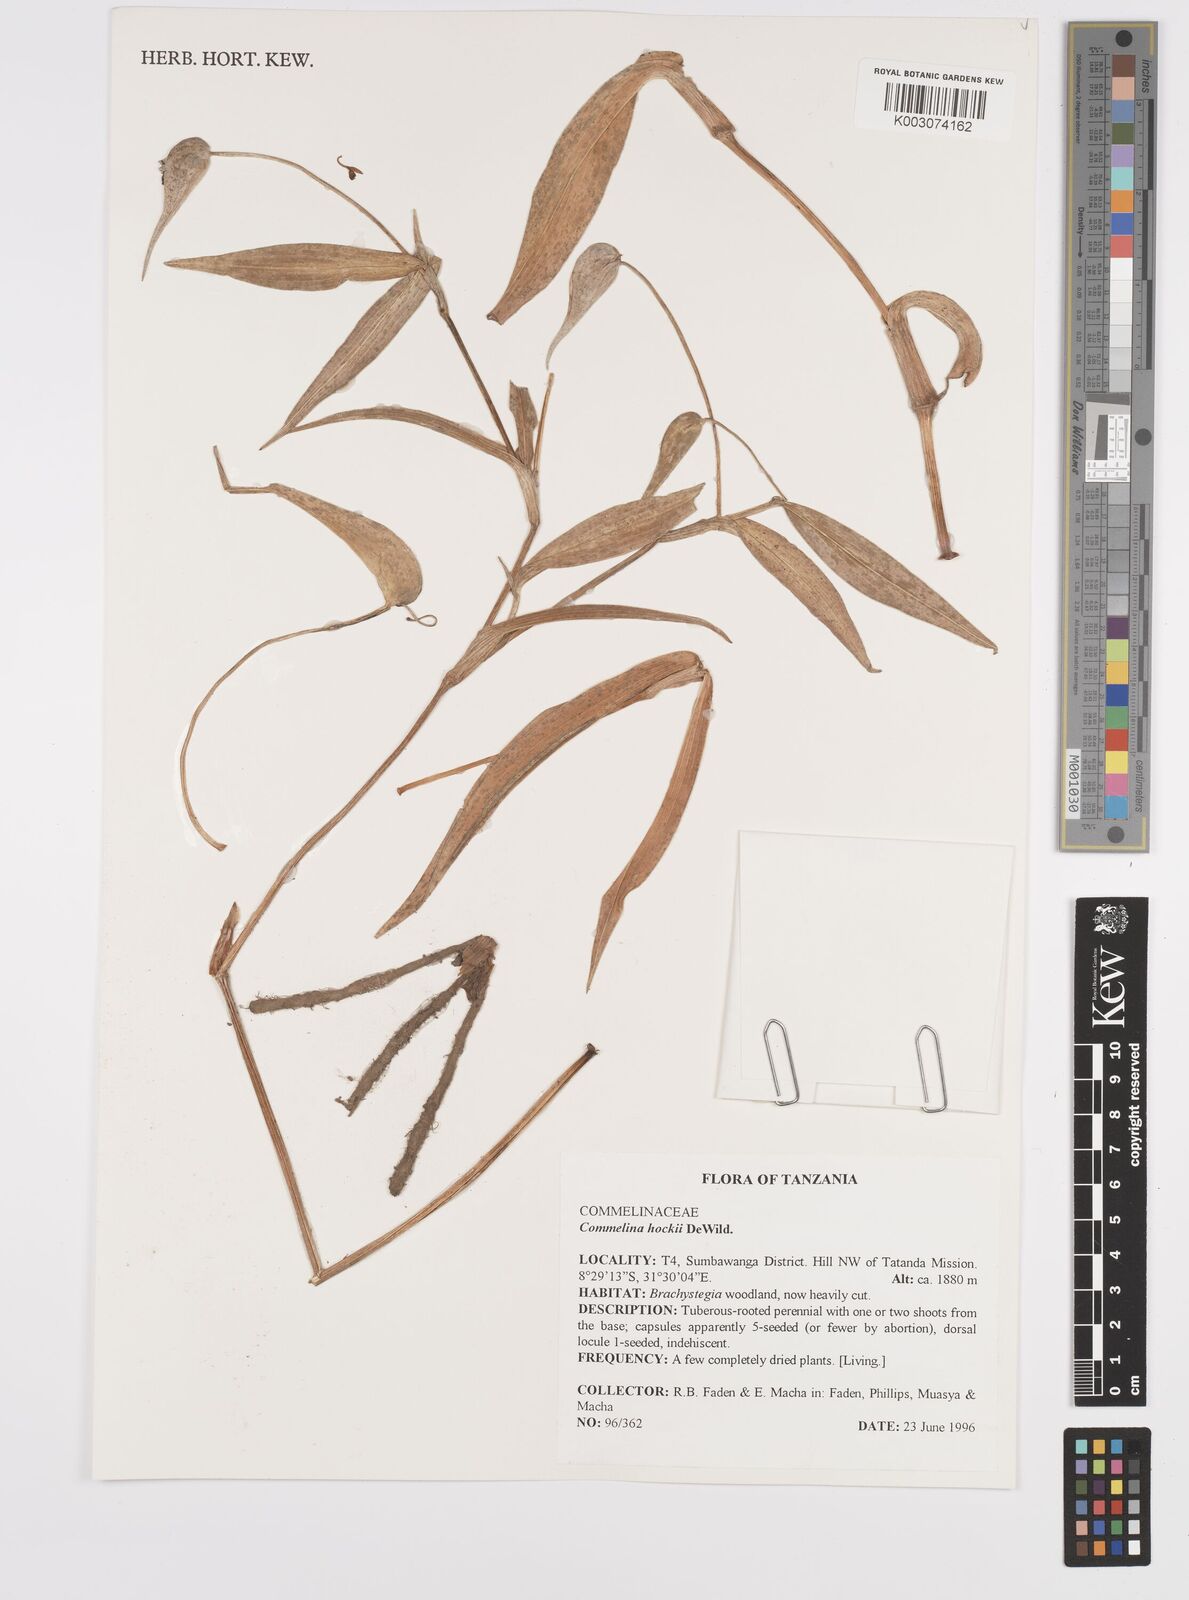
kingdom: Plantae
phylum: Tracheophyta
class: Liliopsida
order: Commelinales
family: Commelinaceae
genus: Commelina
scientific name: Commelina hockii
